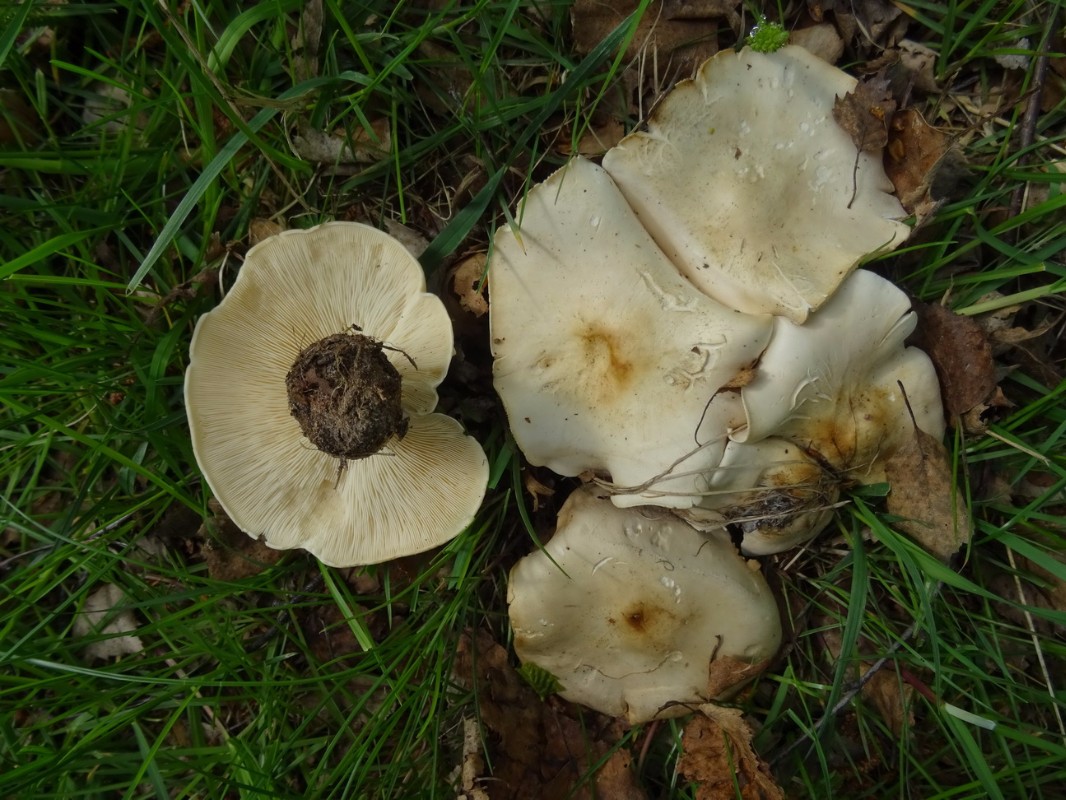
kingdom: Fungi
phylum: Basidiomycota
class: Agaricomycetes
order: Agaricales
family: Lyophyllaceae
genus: Calocybe
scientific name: Calocybe gambosa
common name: vårmusseron
